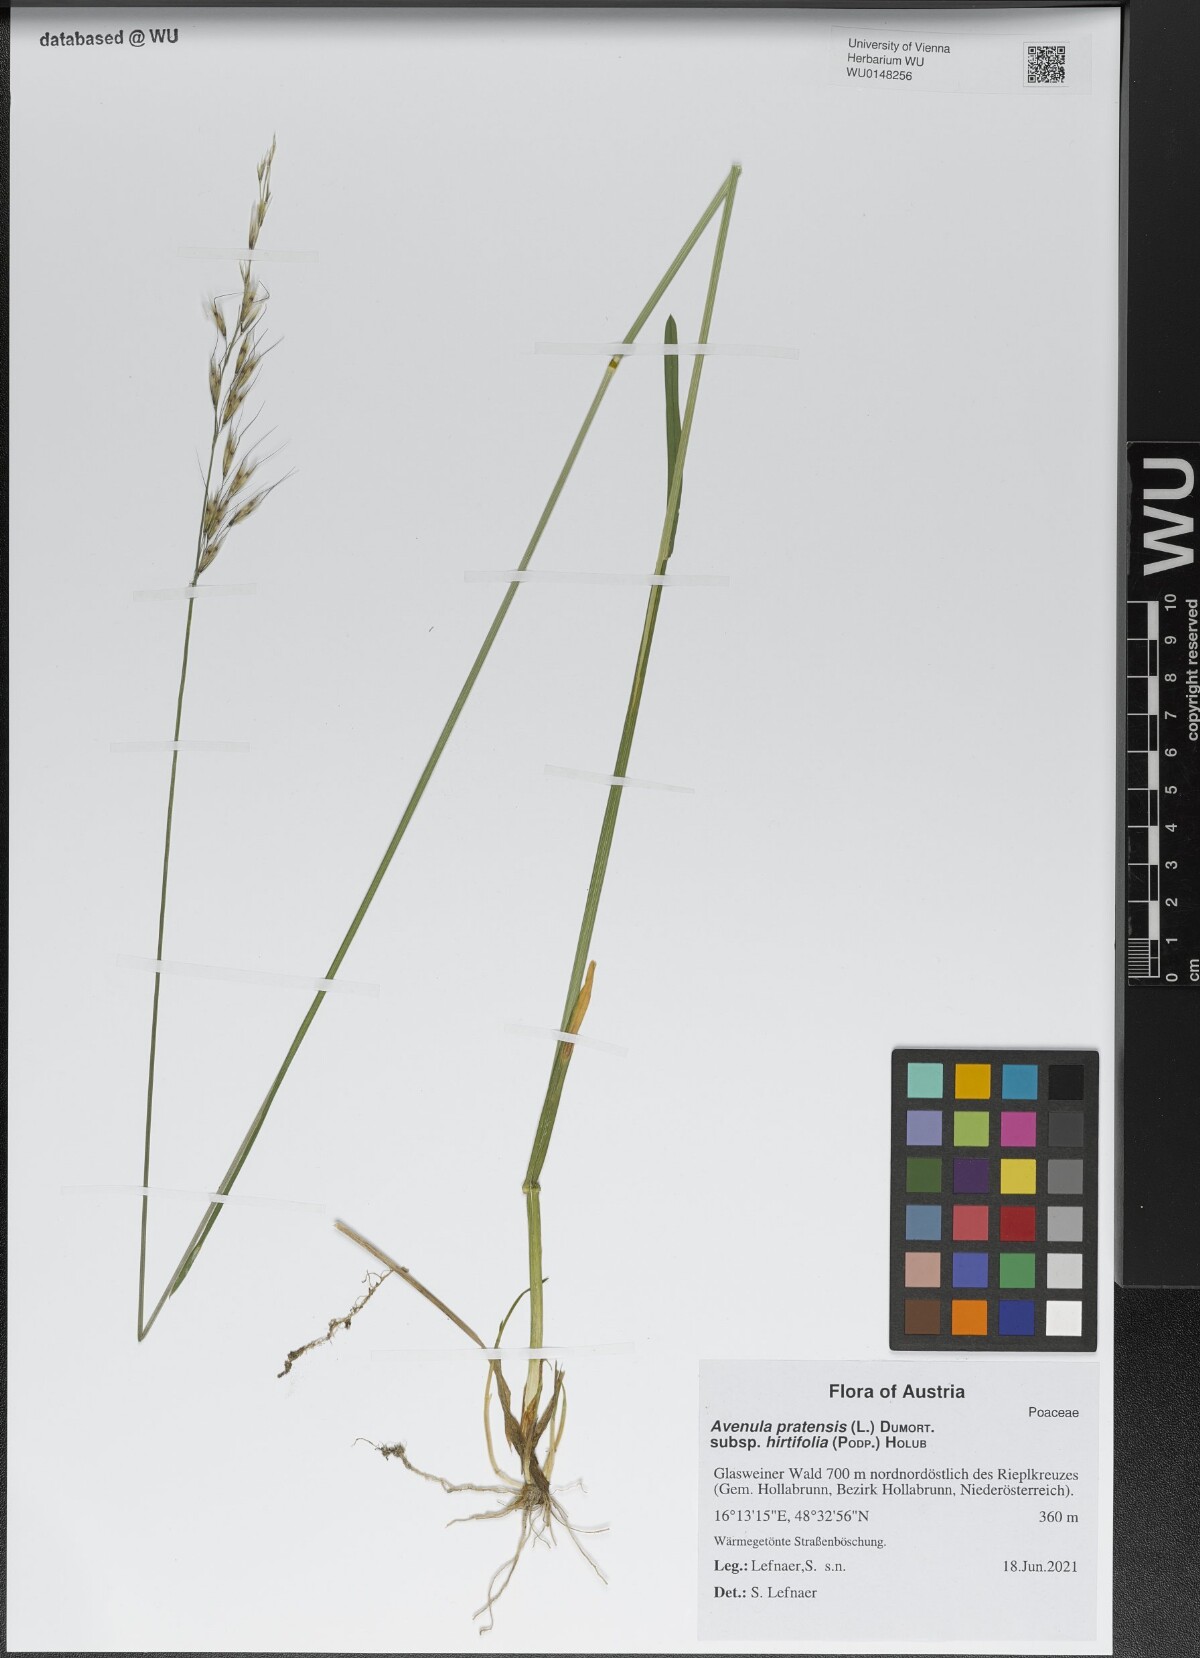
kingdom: Plantae
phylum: Tracheophyta
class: Liliopsida
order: Poales
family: Poaceae
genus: Helictochloa
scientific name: Helictochloa pratensis
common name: Meadow oat grass
